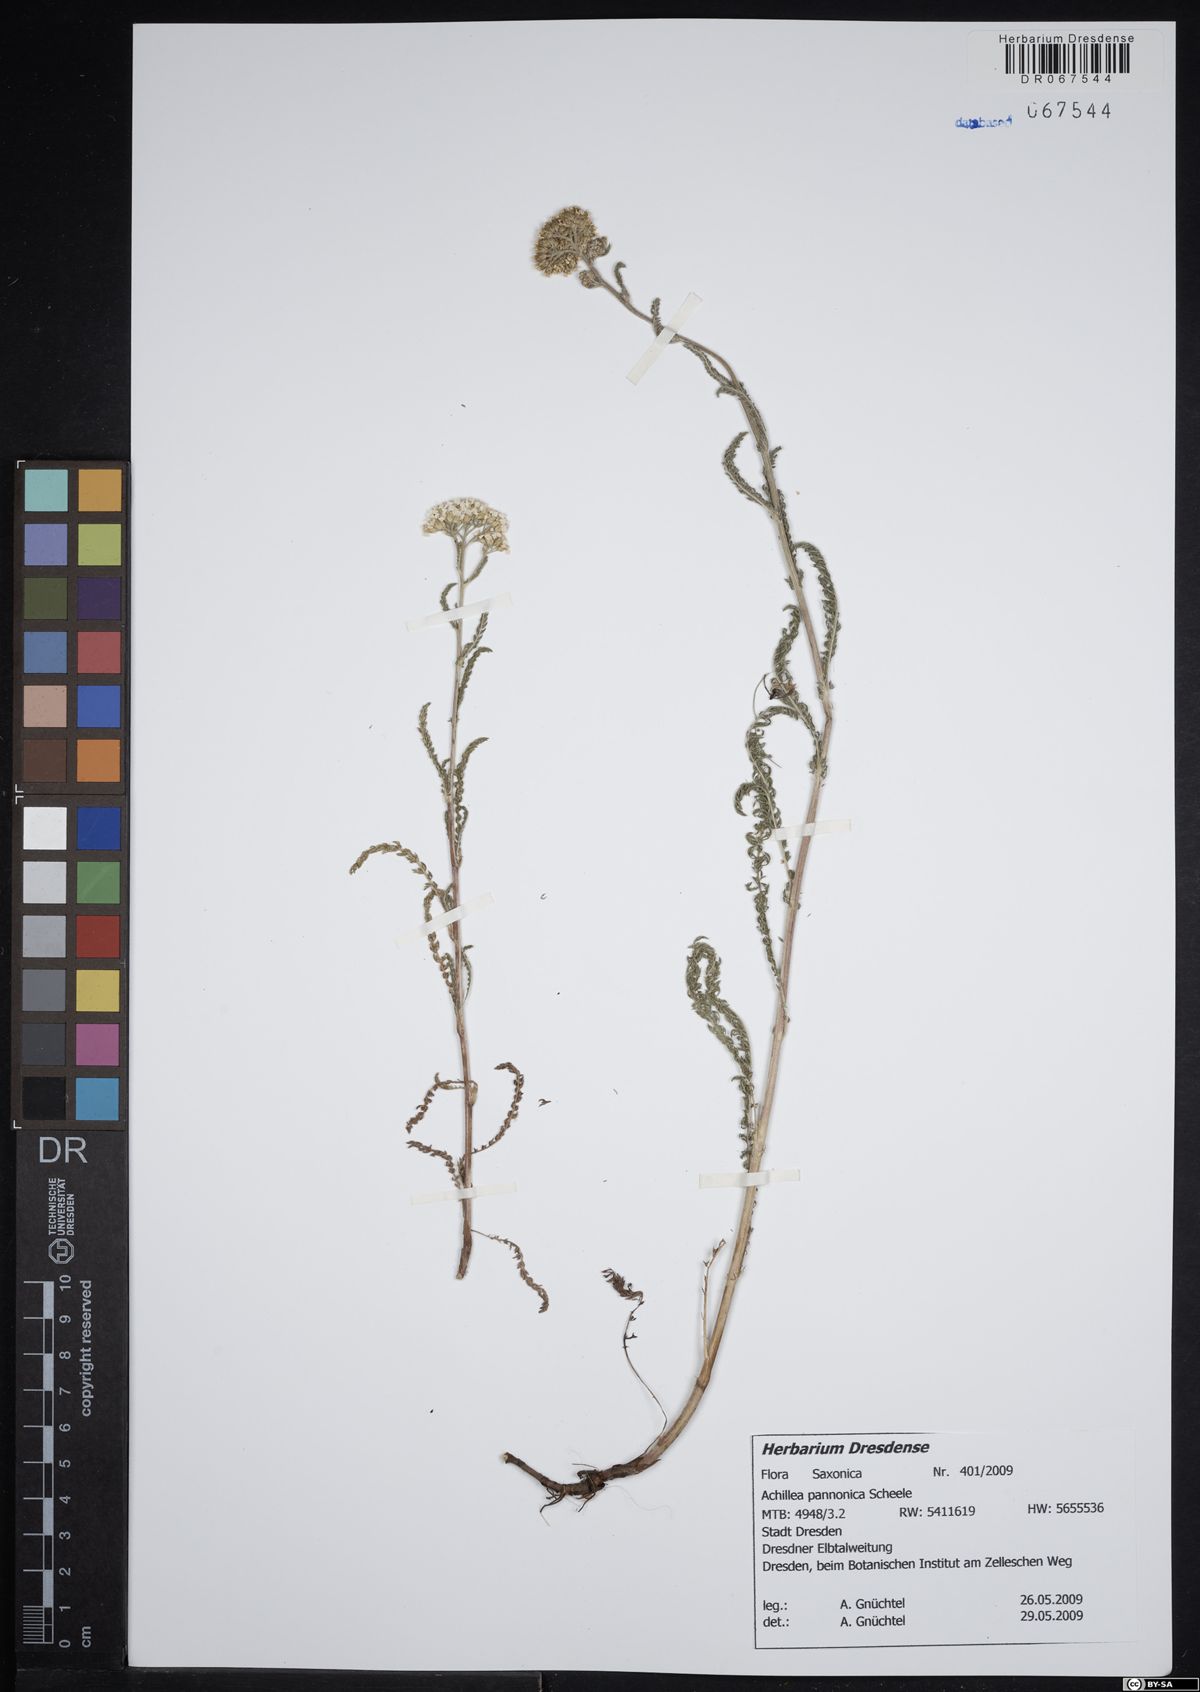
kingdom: Plantae
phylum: Tracheophyta
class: Magnoliopsida
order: Asterales
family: Asteraceae
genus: Achillea
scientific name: Achillea pannonica
